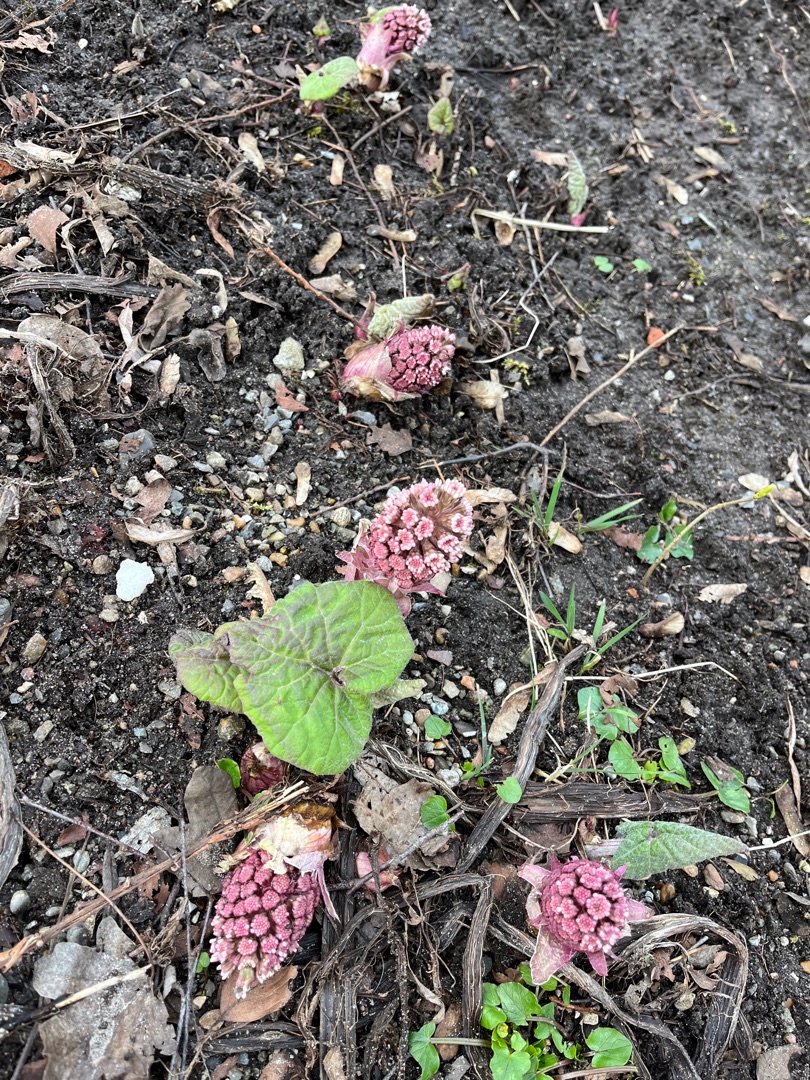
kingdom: Plantae
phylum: Tracheophyta
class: Magnoliopsida
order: Asterales
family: Asteraceae
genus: Petasites
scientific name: Petasites hybridus
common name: Rød hestehov
